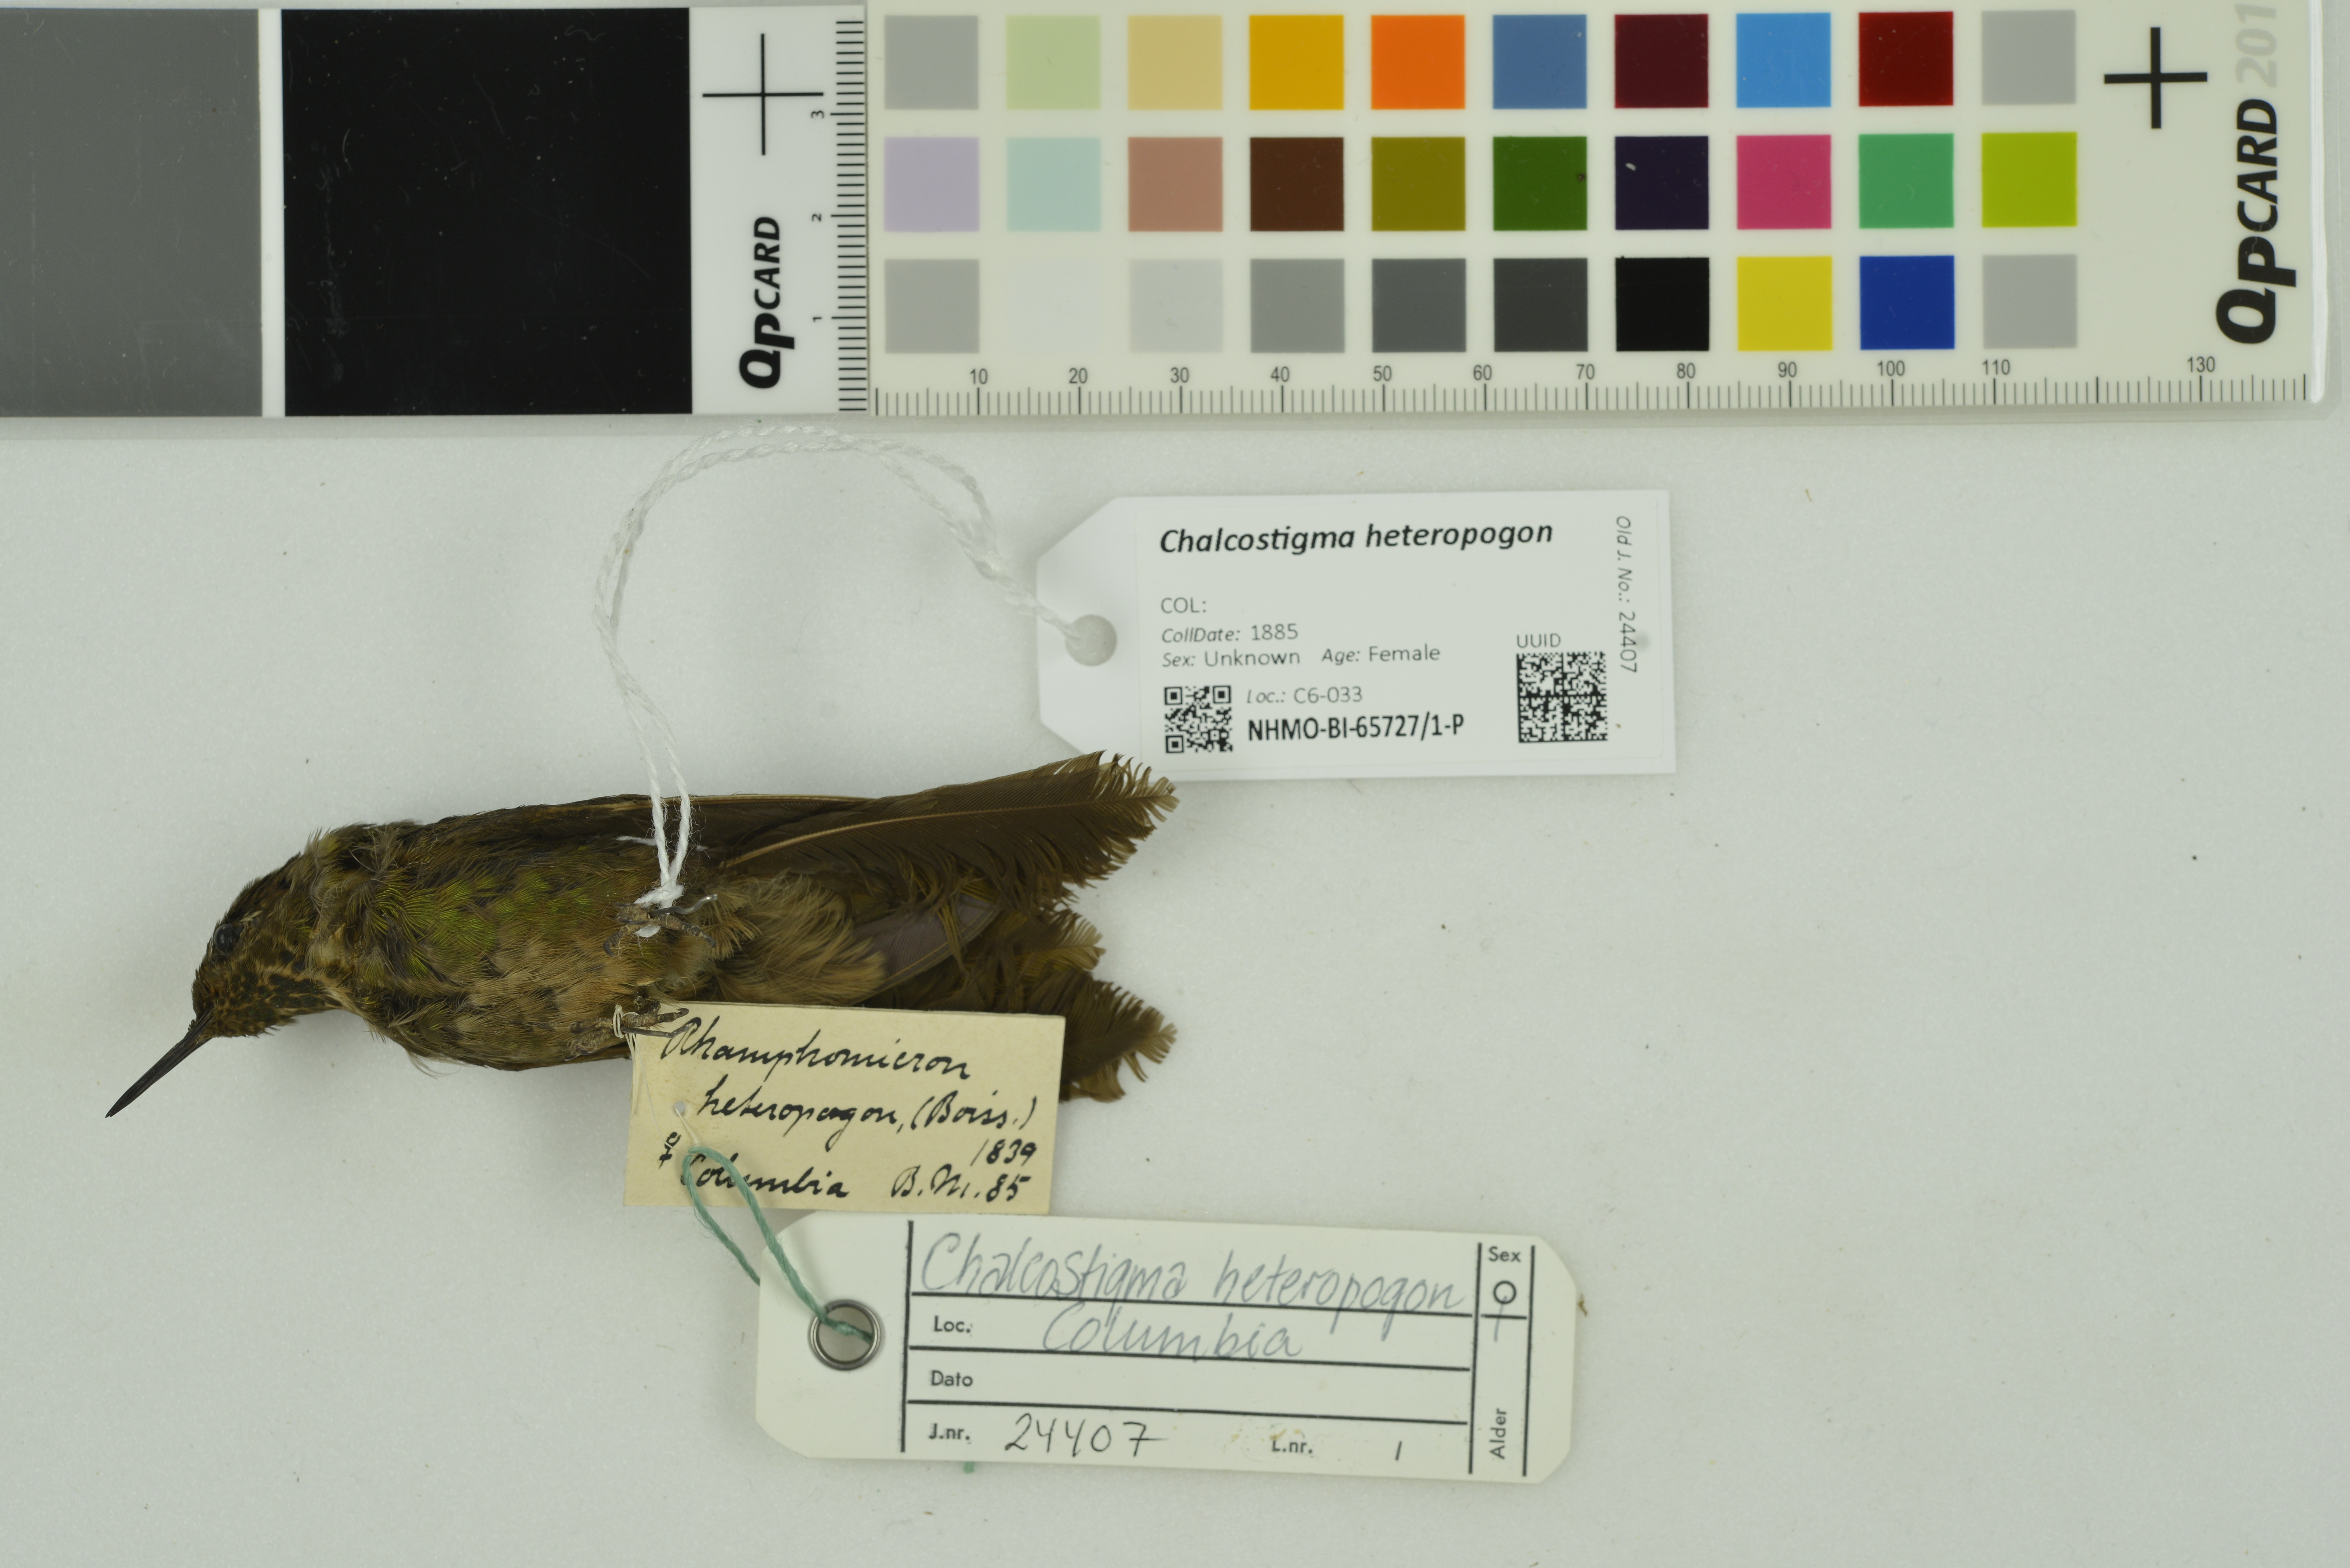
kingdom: Animalia
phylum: Chordata
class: Aves
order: Apodiformes
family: Trochilidae
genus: Chalcostigma
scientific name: Chalcostigma heteropogon
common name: Bronze-tailed thornbill
